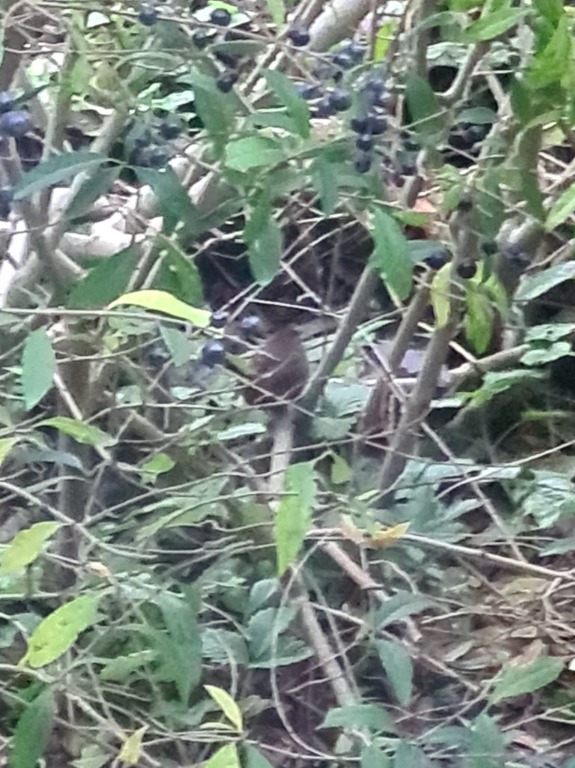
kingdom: Animalia
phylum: Chordata
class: Aves
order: Passeriformes
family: Troglodytidae
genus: Troglodytes
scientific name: Troglodytes troglodytes
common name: Gærdesmutte
